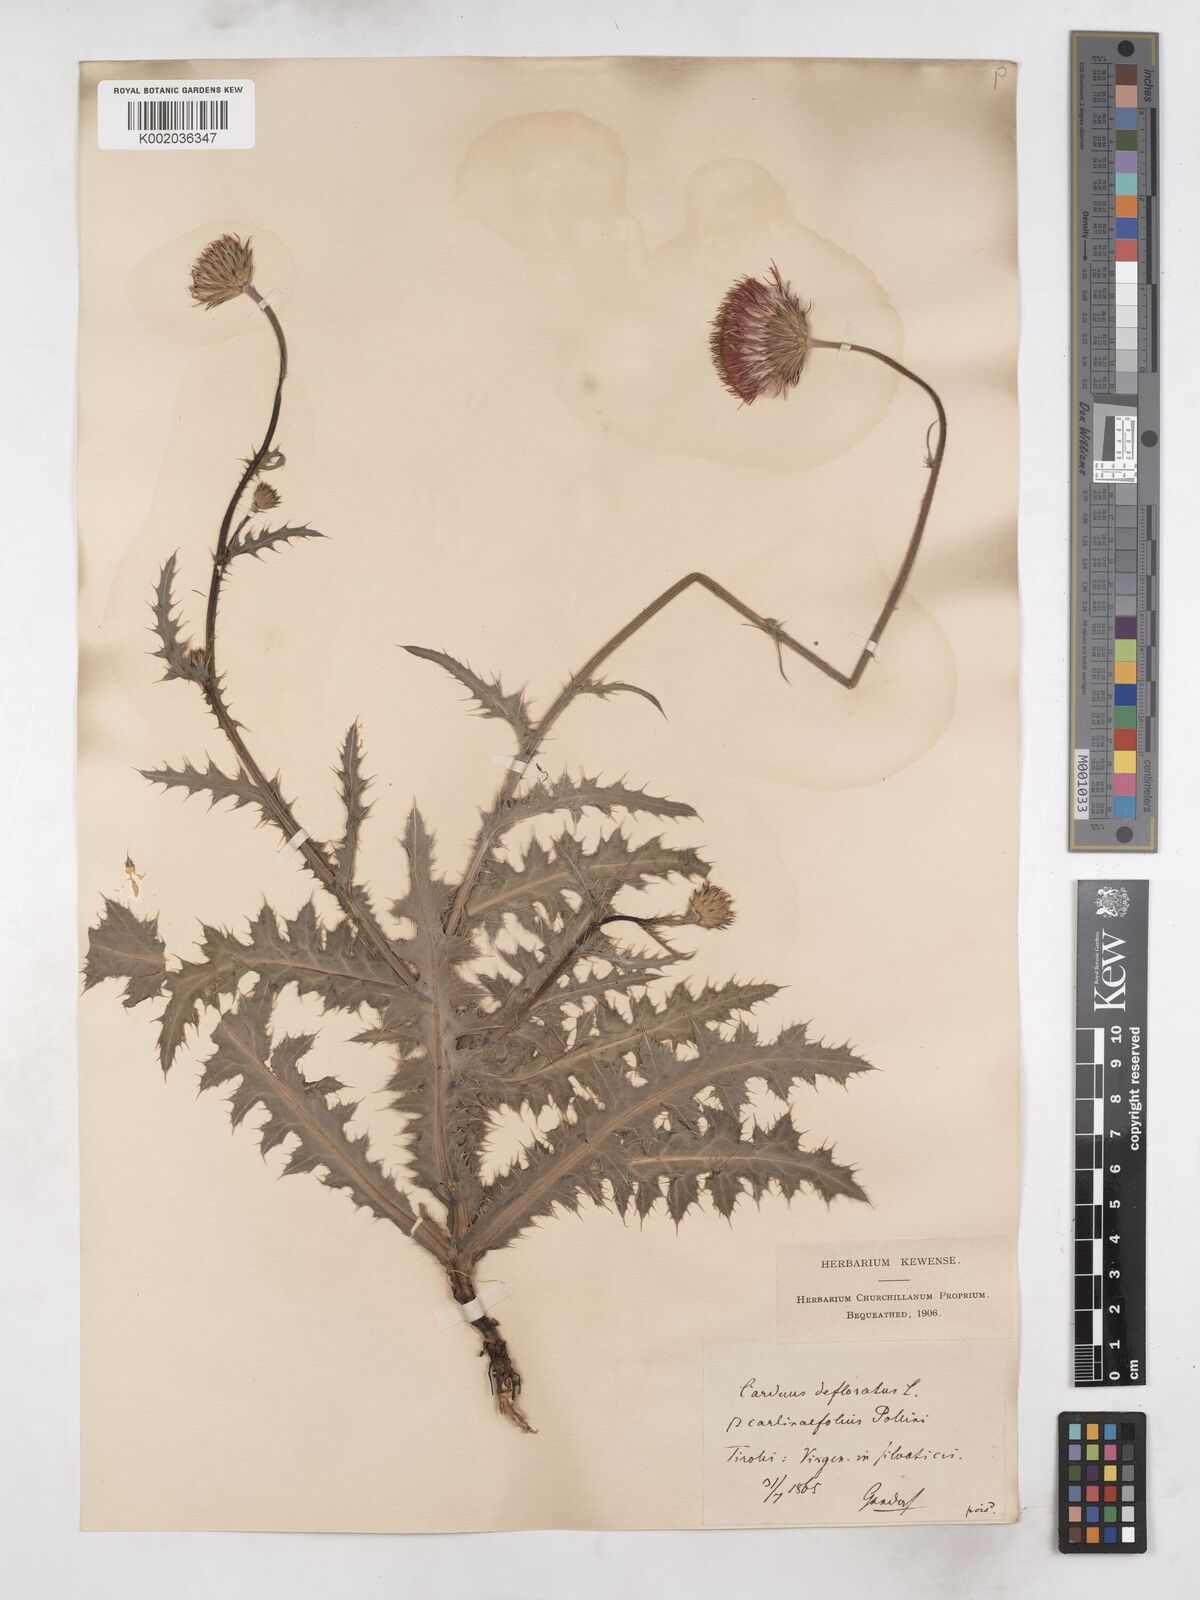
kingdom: Plantae
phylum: Tracheophyta
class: Magnoliopsida
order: Asterales
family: Asteraceae
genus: Carduus
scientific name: Carduus defloratus
